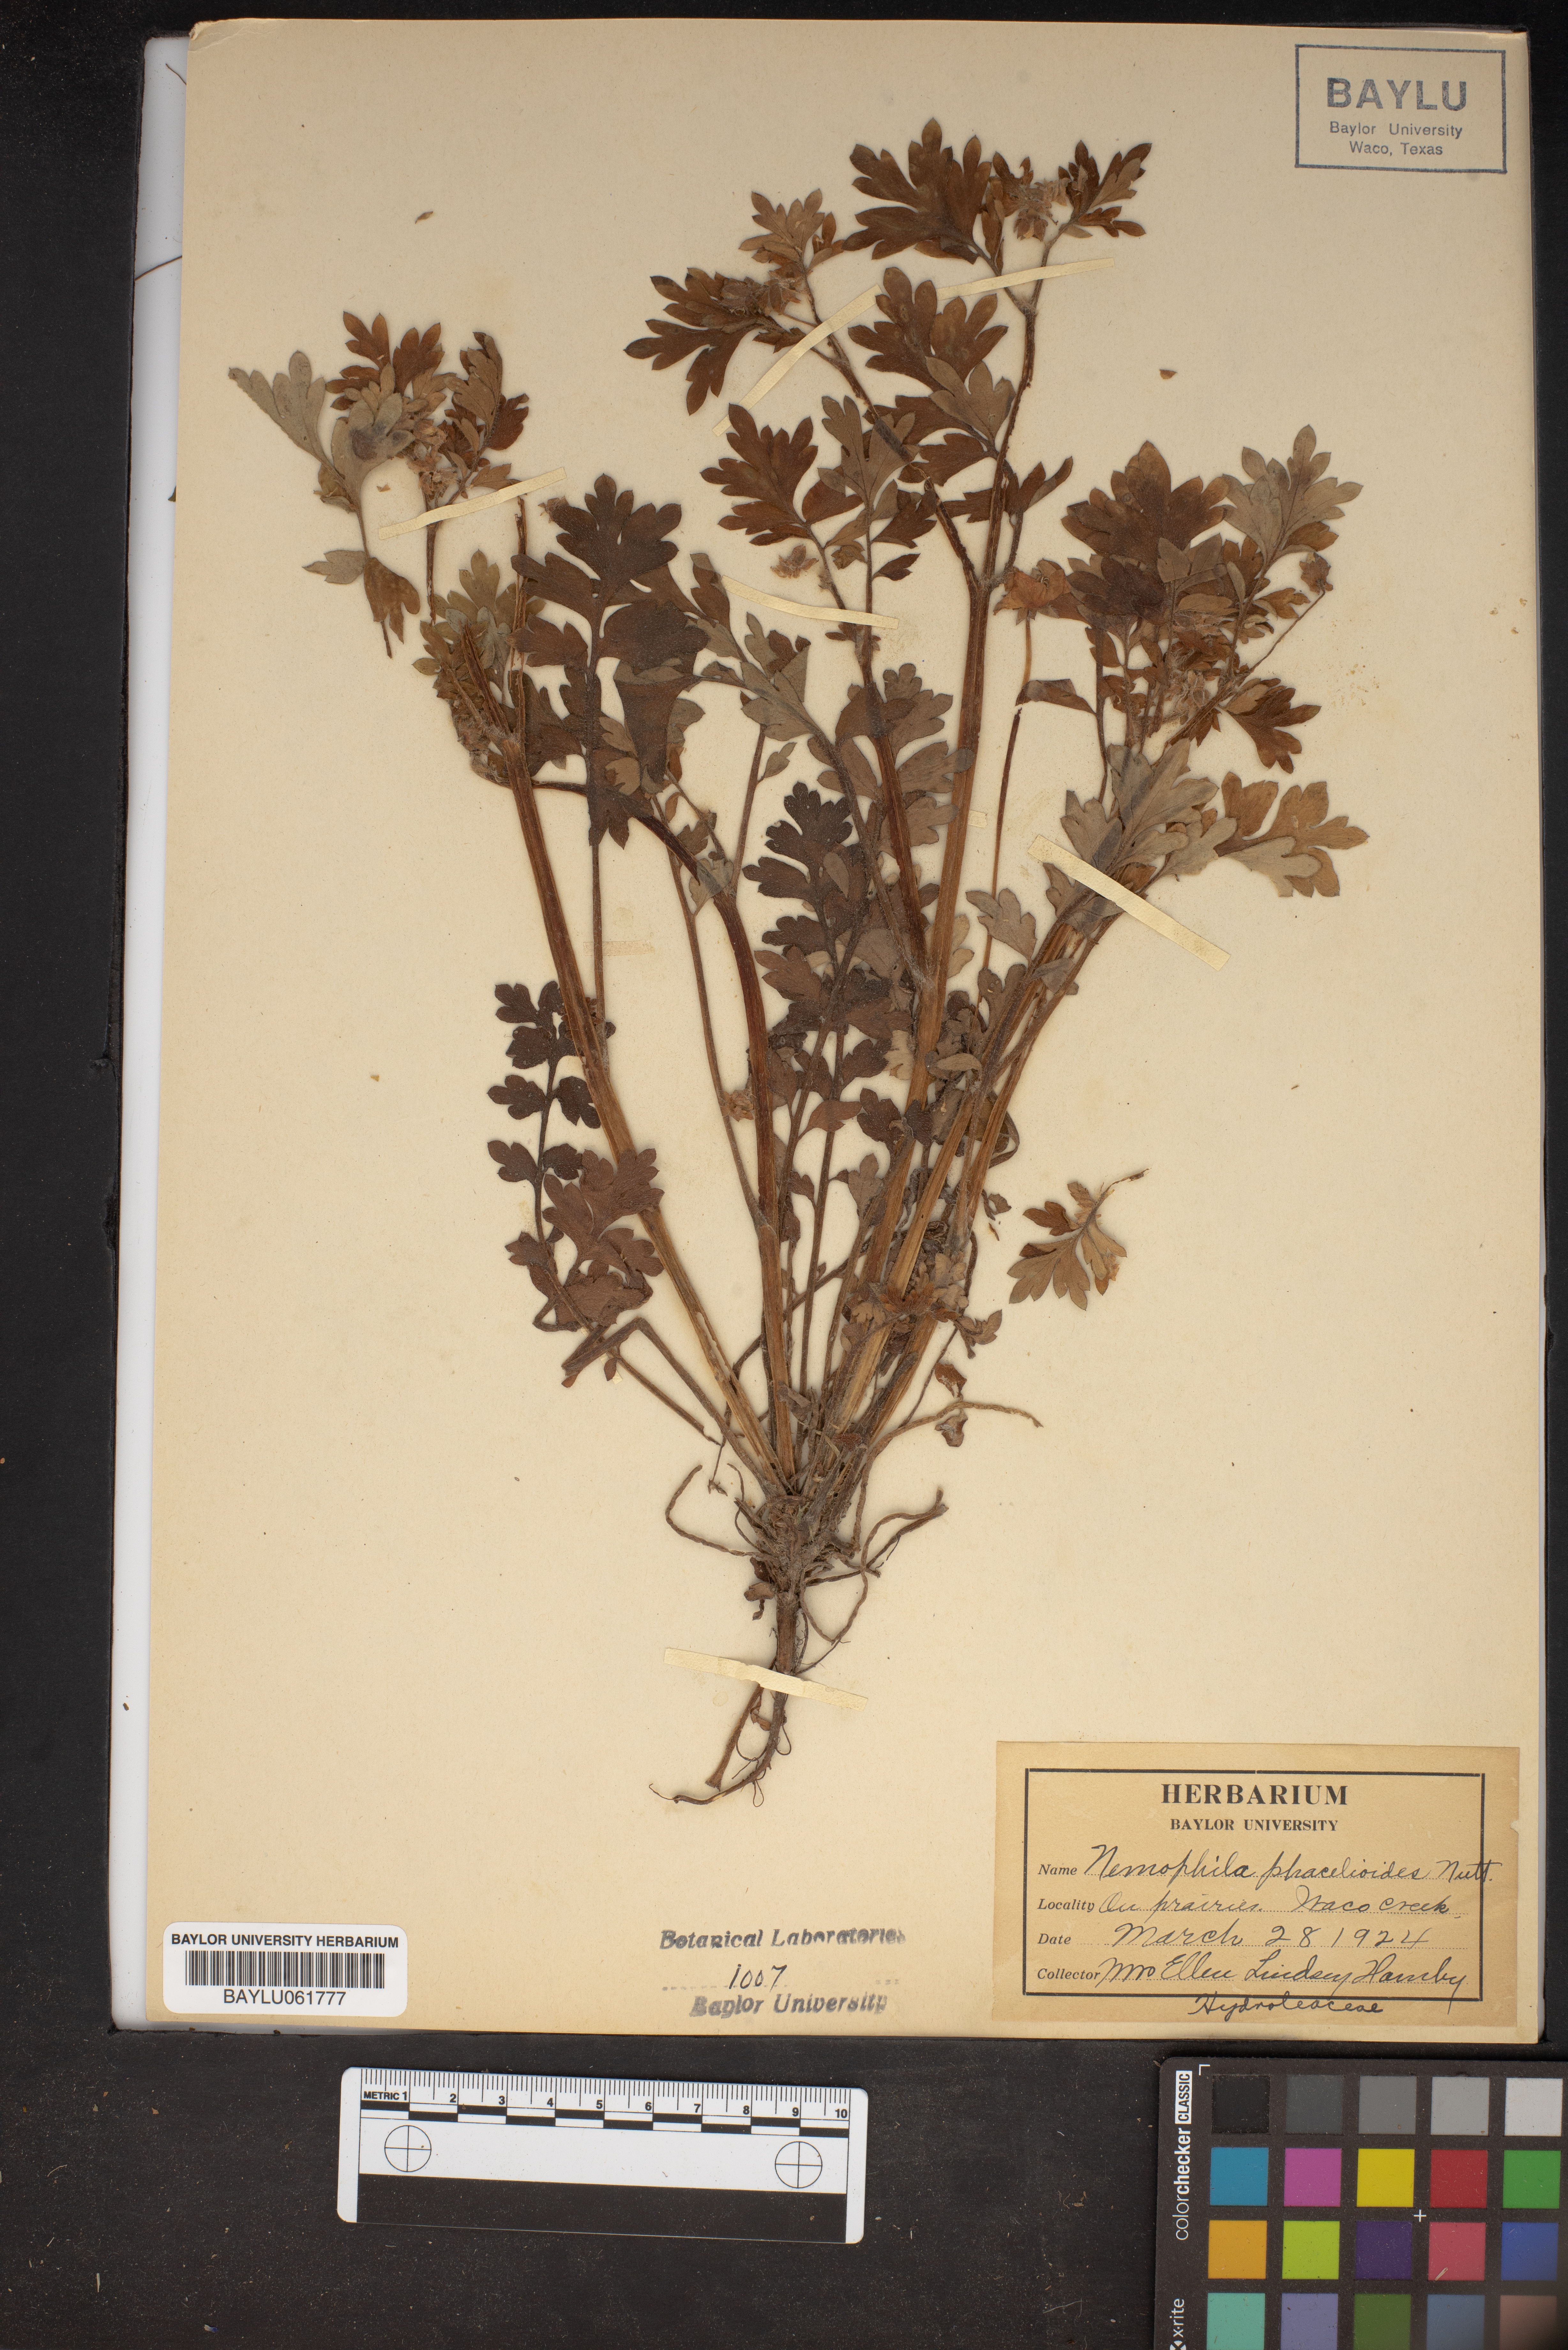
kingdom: Plantae
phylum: Tracheophyta
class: Magnoliopsida
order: Boraginales
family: Hydrophyllaceae
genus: Nemophila
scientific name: Nemophila phacelioides
